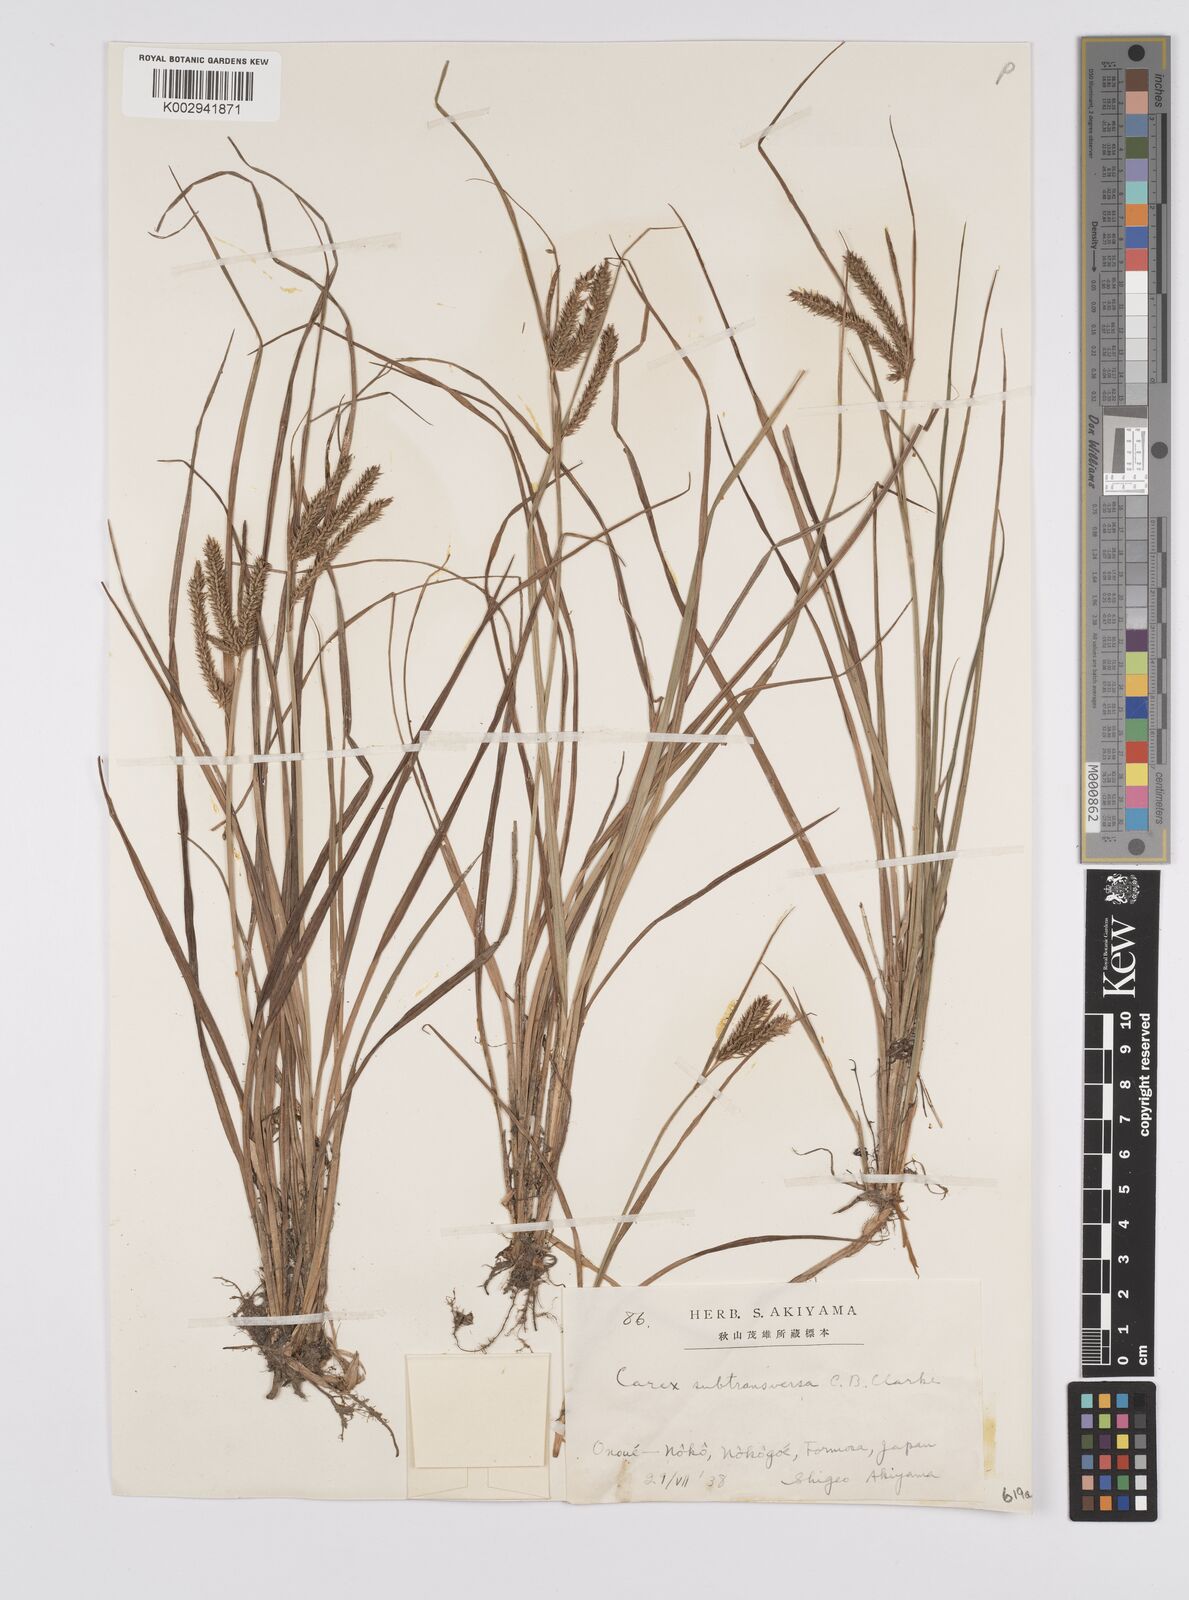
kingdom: Plantae
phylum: Tracheophyta
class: Liliopsida
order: Poales
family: Cyperaceae
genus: Carex
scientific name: Carex subtransversa
